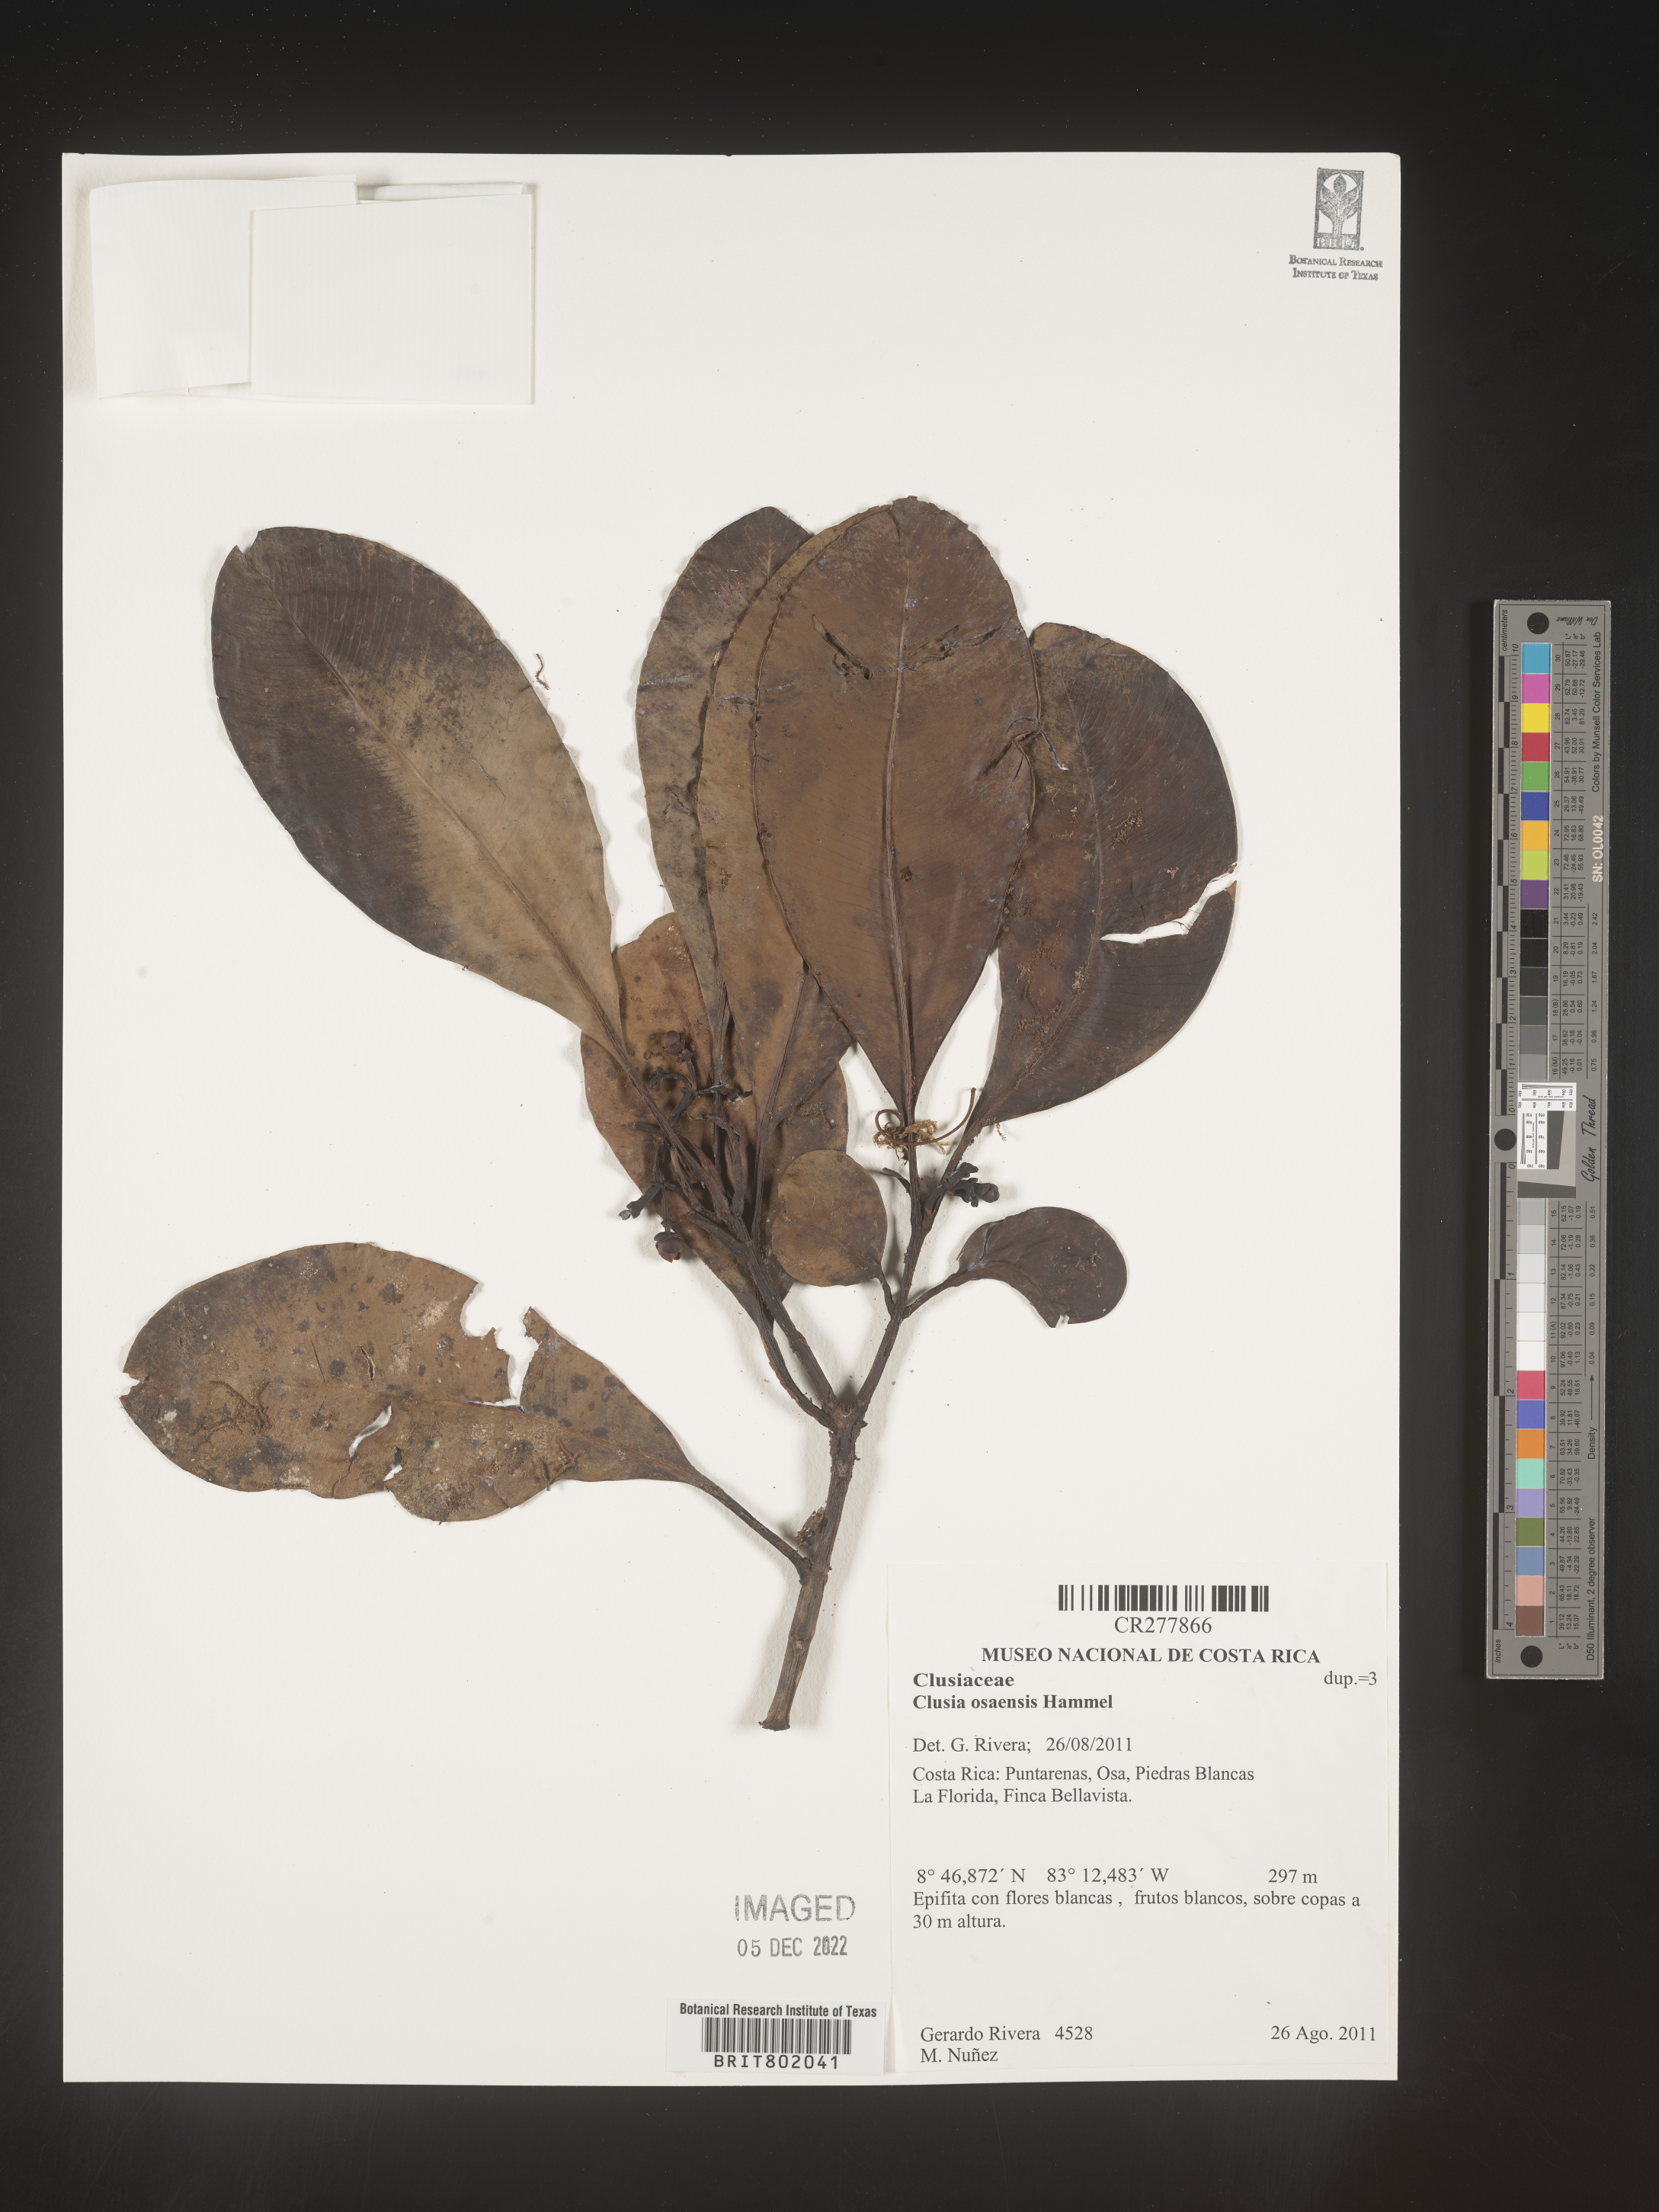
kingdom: Plantae
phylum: Tracheophyta
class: Magnoliopsida
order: Malpighiales
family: Clusiaceae
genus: Clusia
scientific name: Clusia
